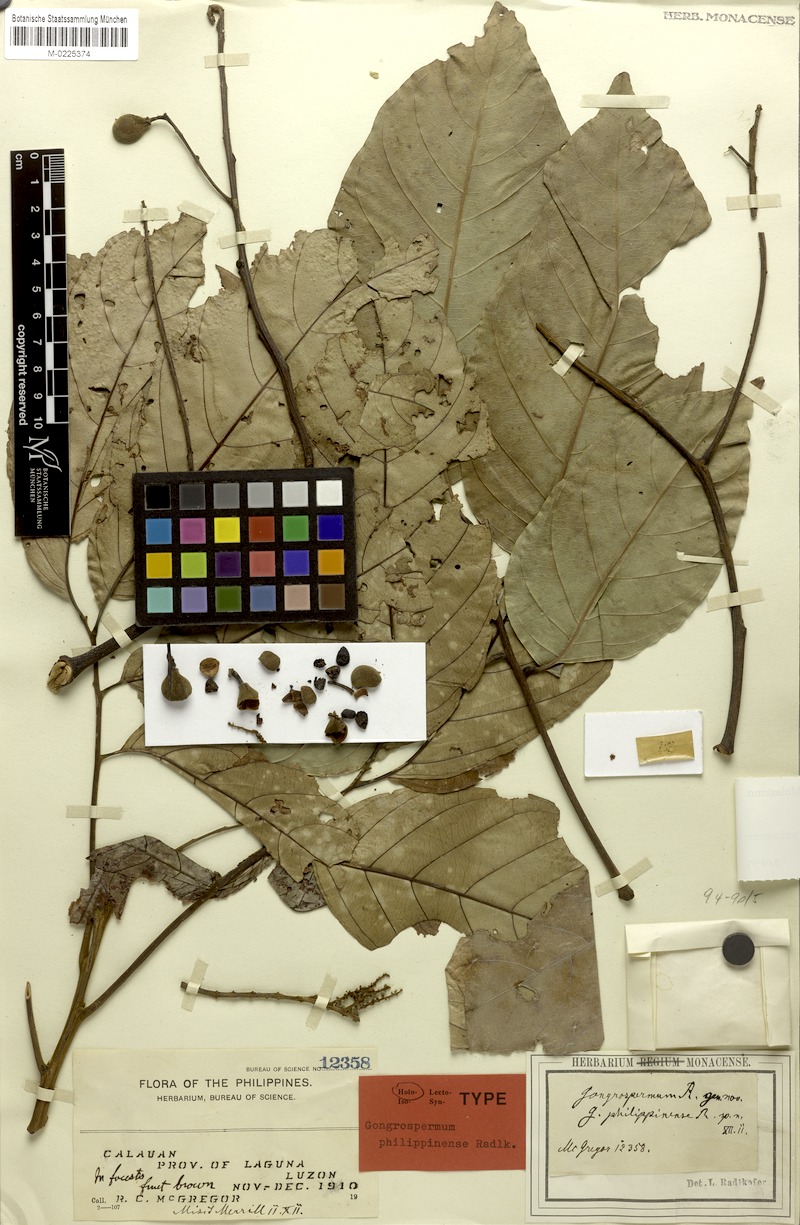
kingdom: Plantae
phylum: Tracheophyta
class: Magnoliopsida
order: Sapindales
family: Sapindaceae
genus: Gongrospermum
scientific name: Gongrospermum philippinense
